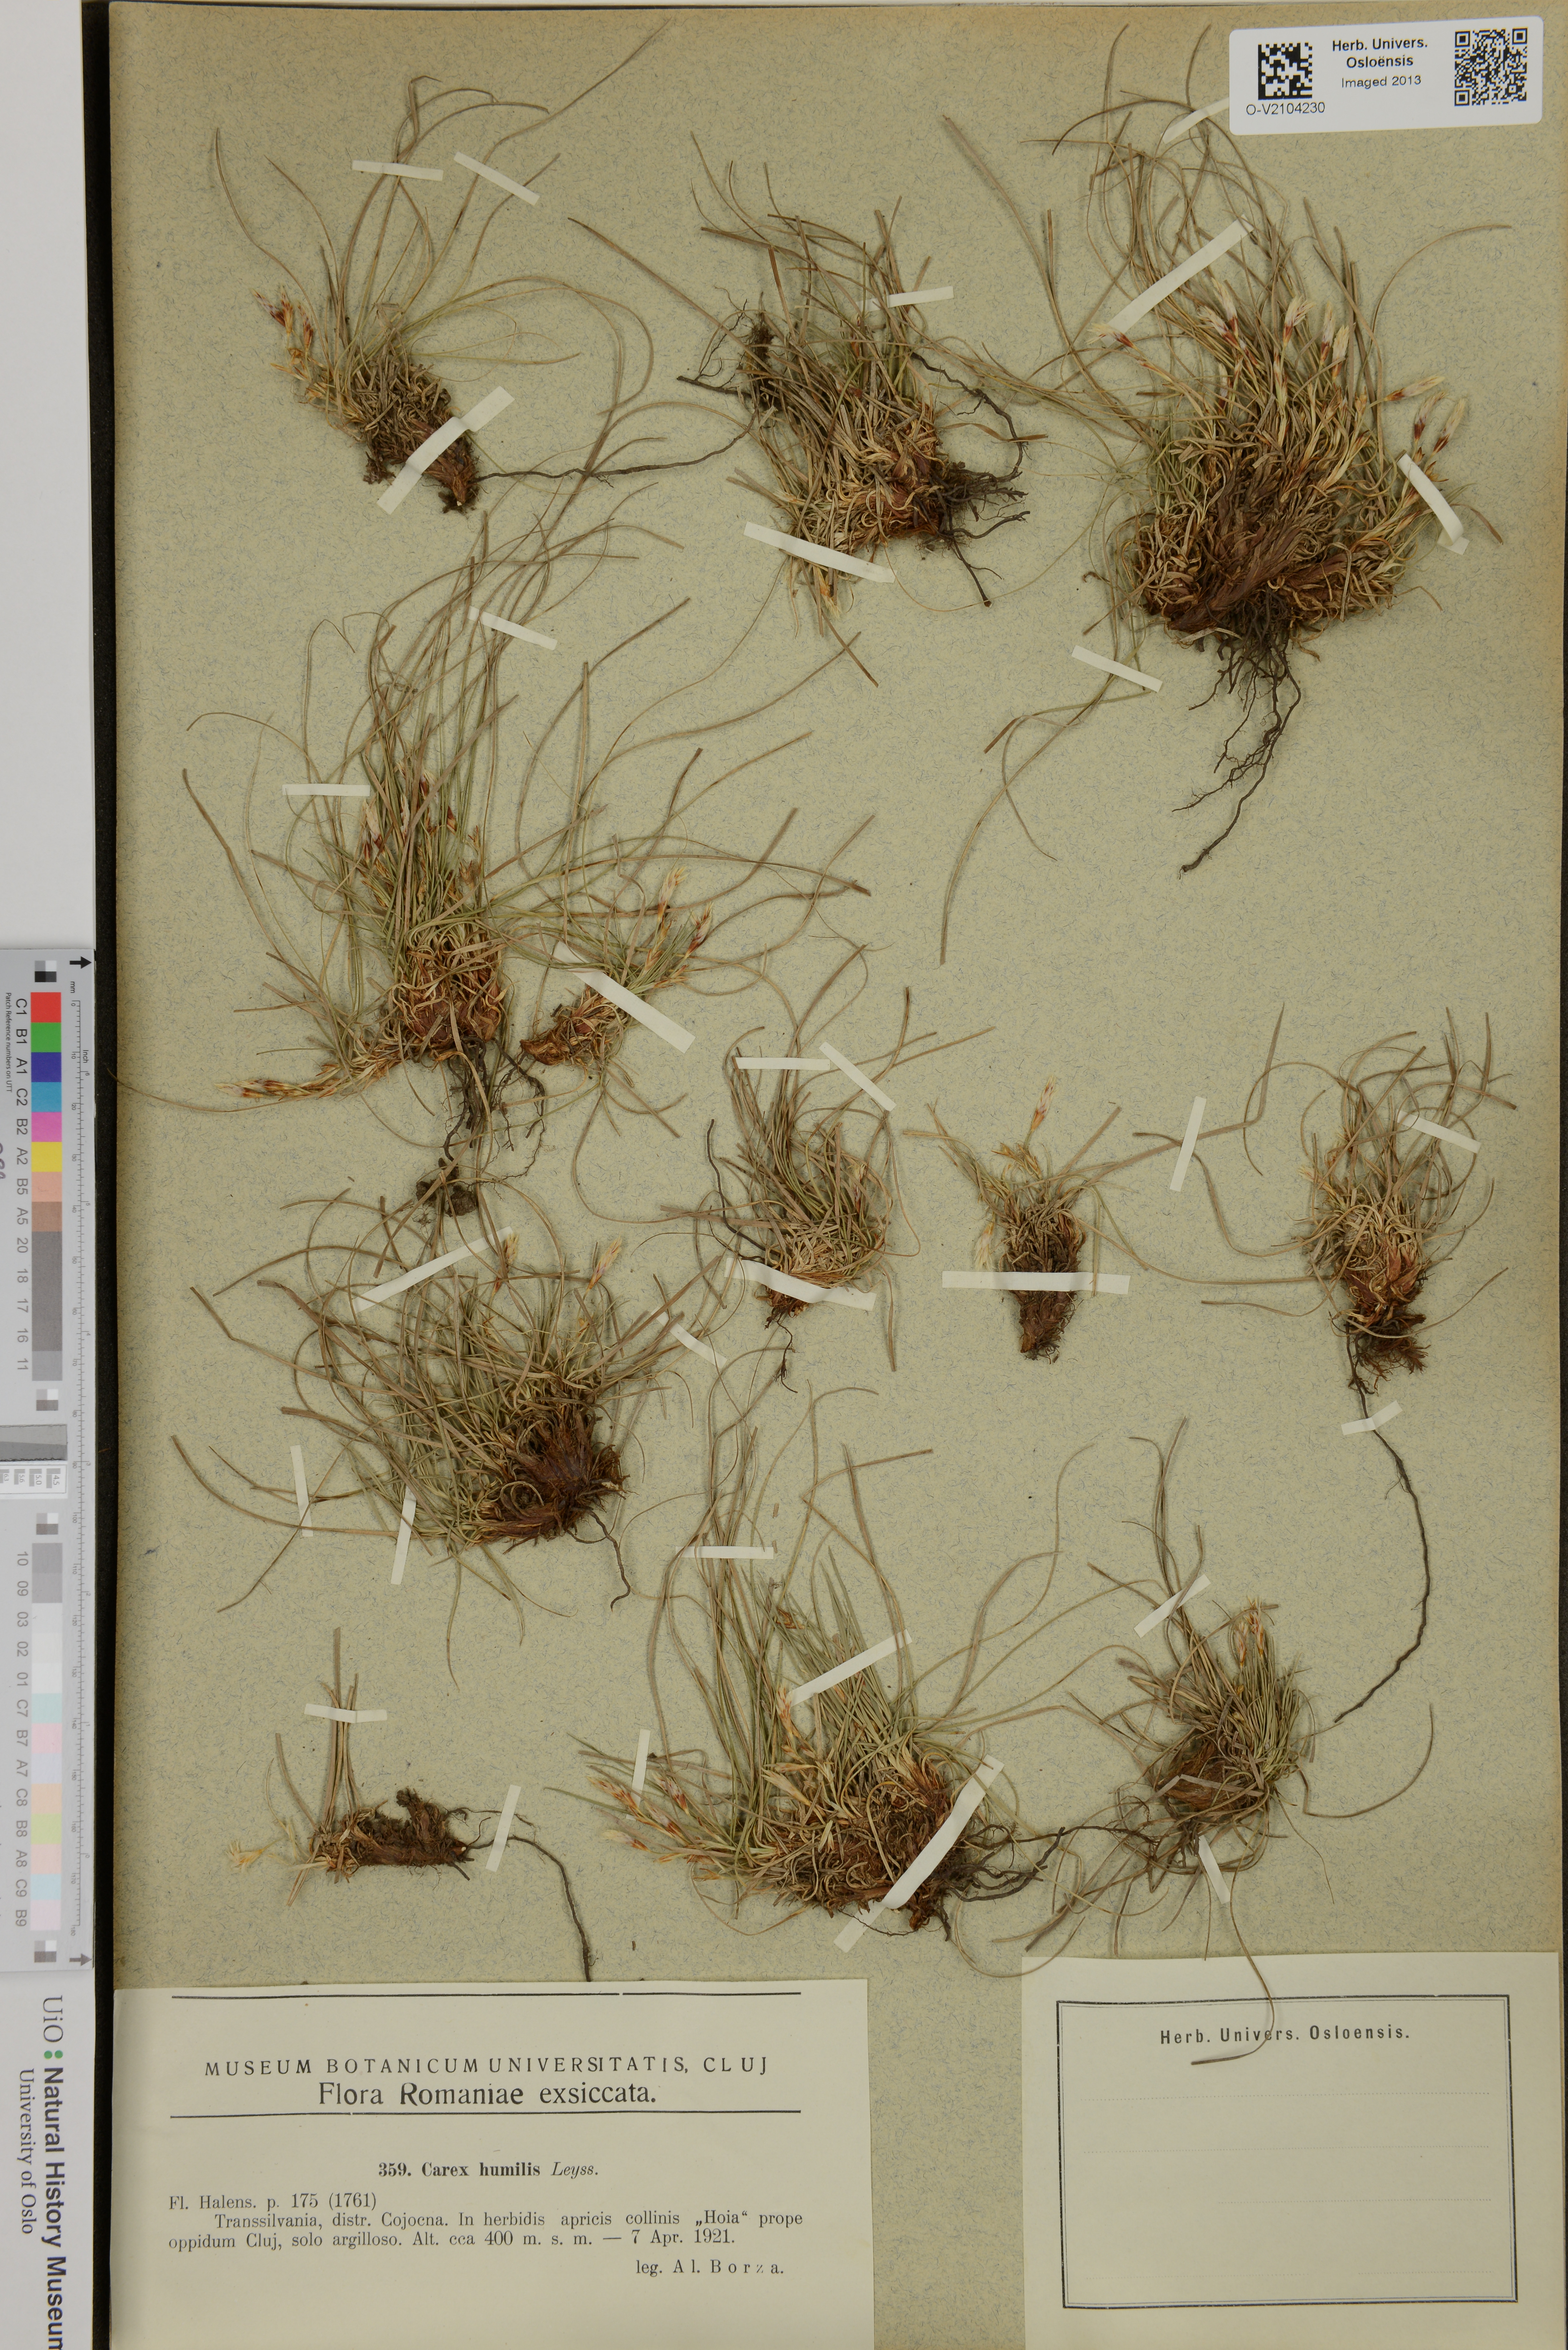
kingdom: Plantae
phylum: Tracheophyta
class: Liliopsida
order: Poales
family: Cyperaceae
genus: Carex
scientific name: Carex humilis
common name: Dwarf sedge
